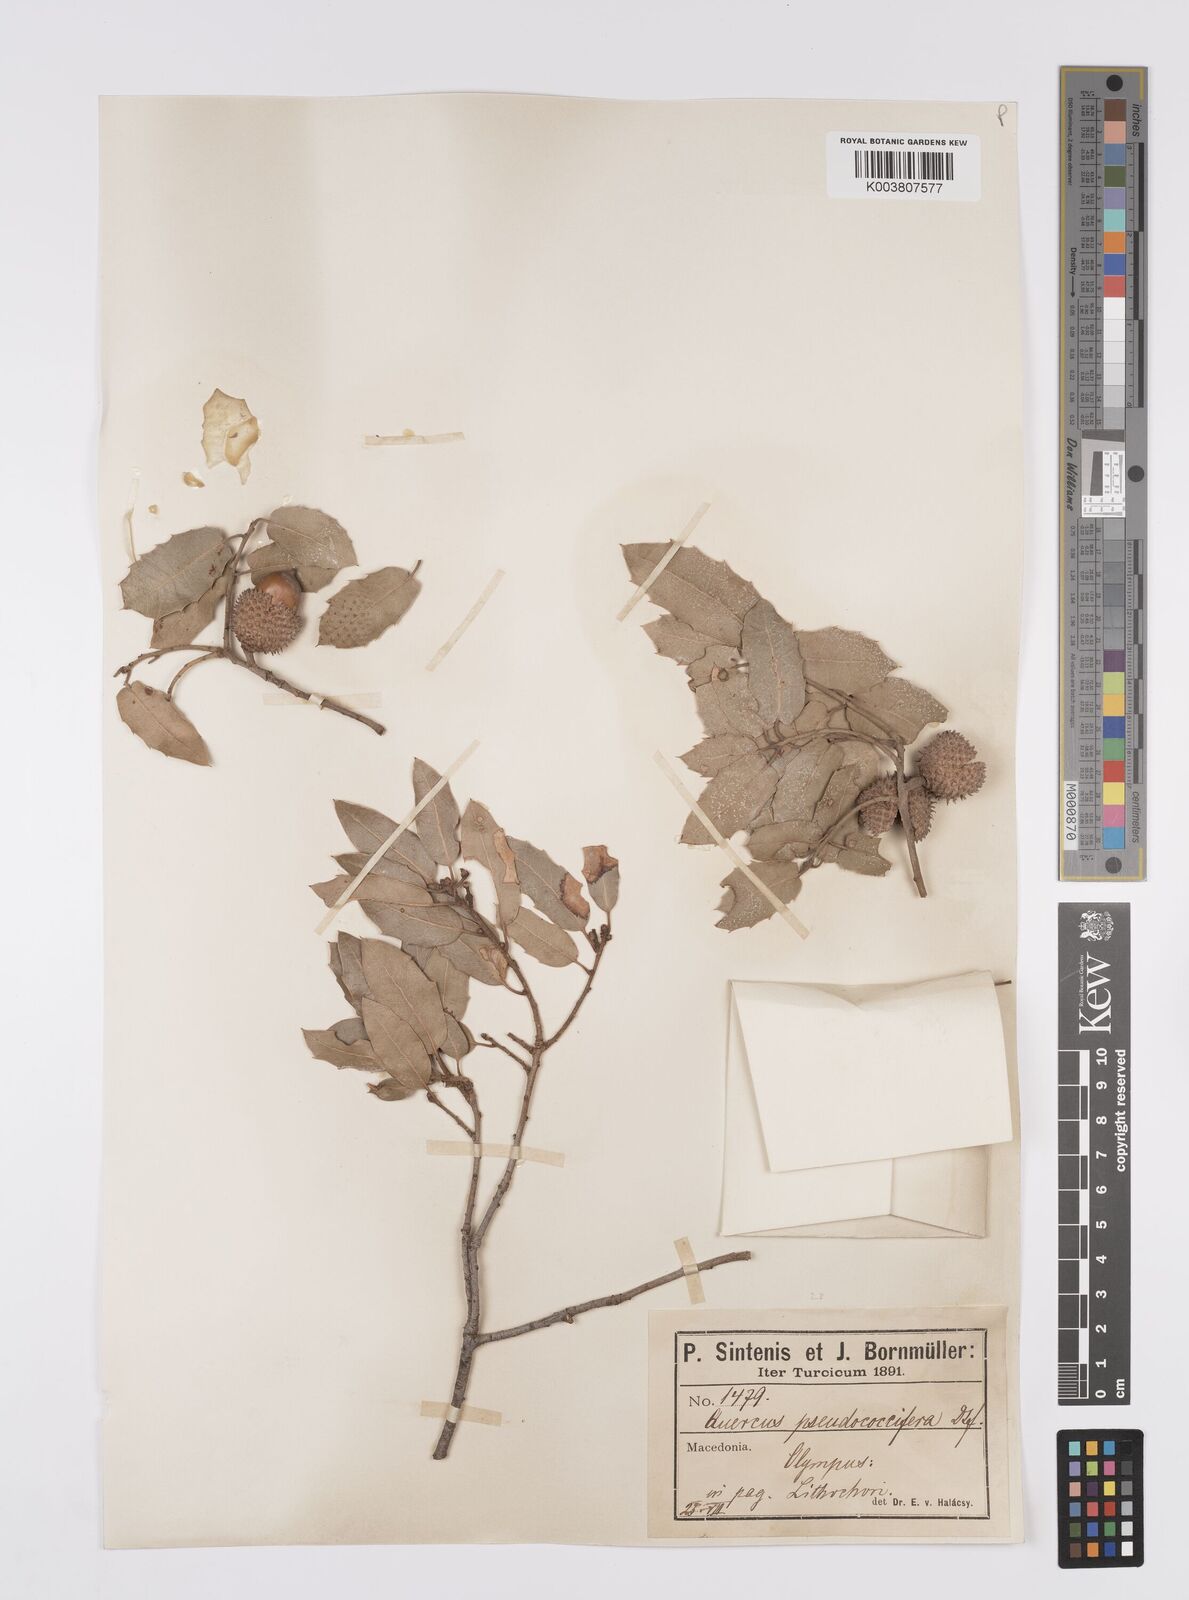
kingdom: Plantae
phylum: Tracheophyta
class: Magnoliopsida
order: Fagales
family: Fagaceae
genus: Quercus
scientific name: Quercus coccifera
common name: Kermes oak
